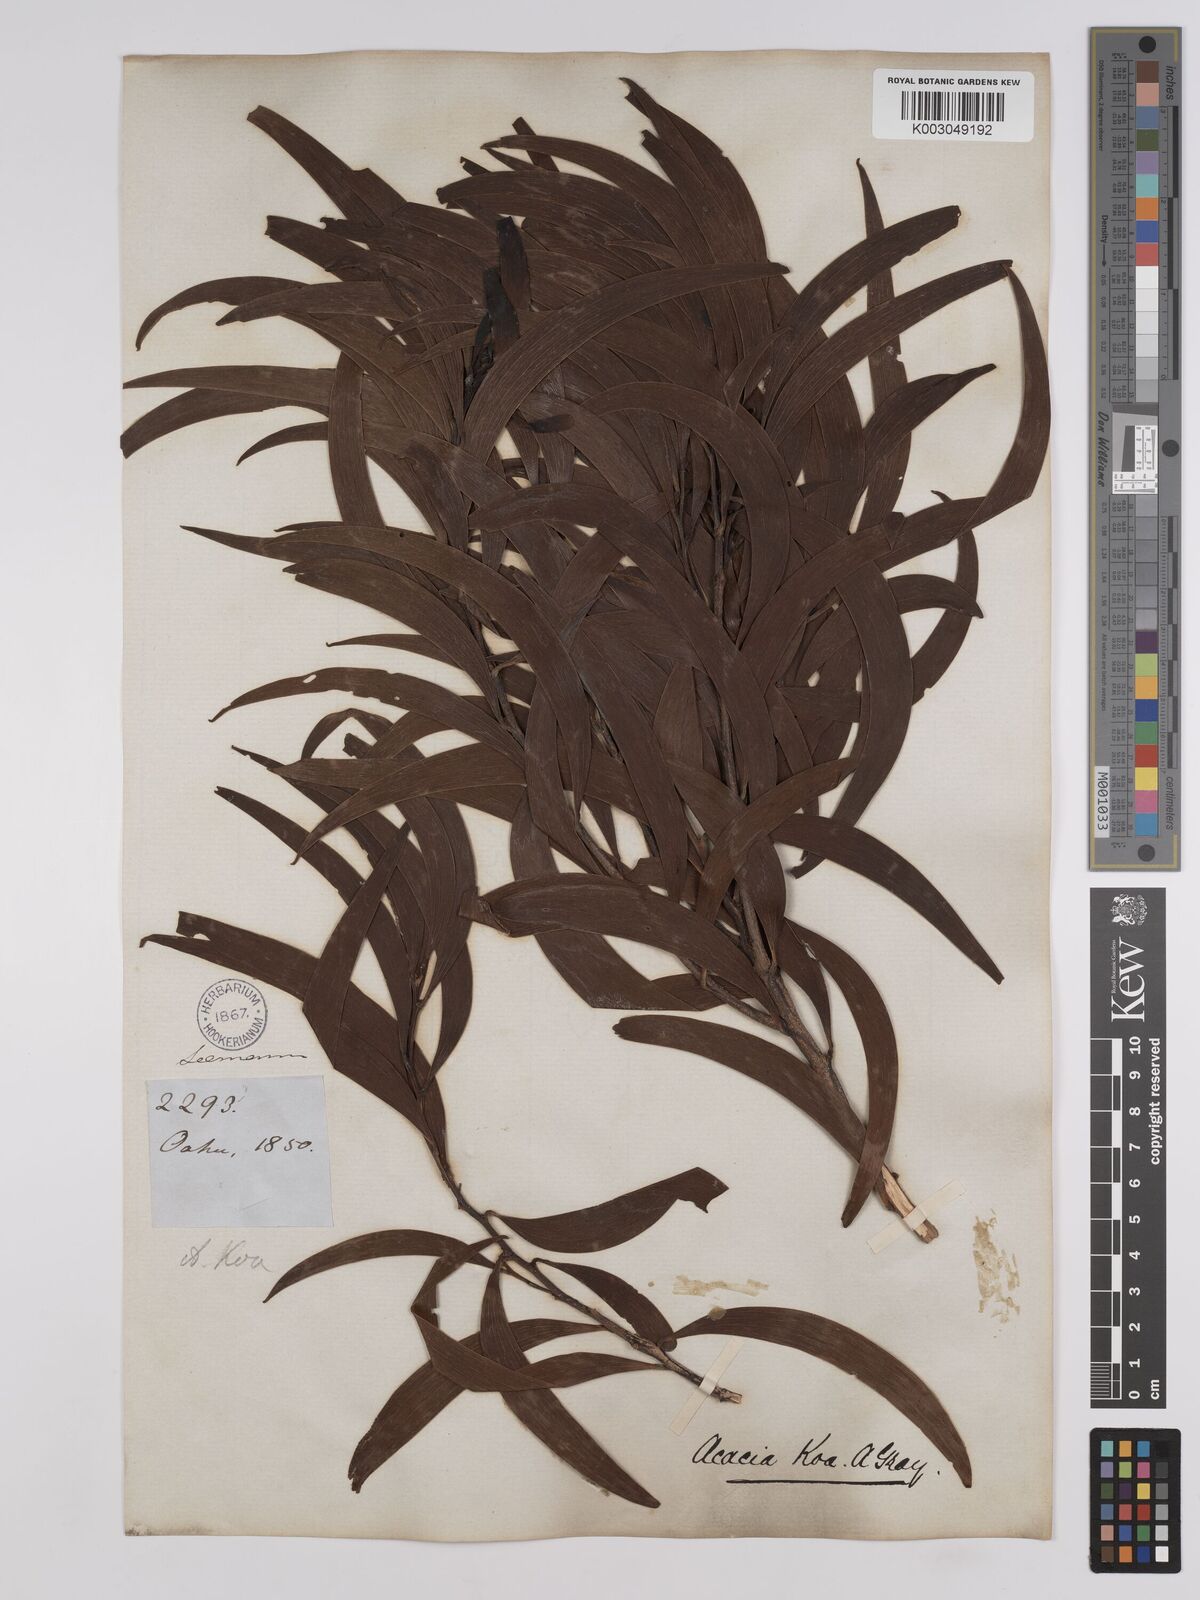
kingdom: Plantae
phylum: Tracheophyta
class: Magnoliopsida
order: Fabales
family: Fabaceae
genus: Acacia
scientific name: Acacia koa
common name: Gray koa
